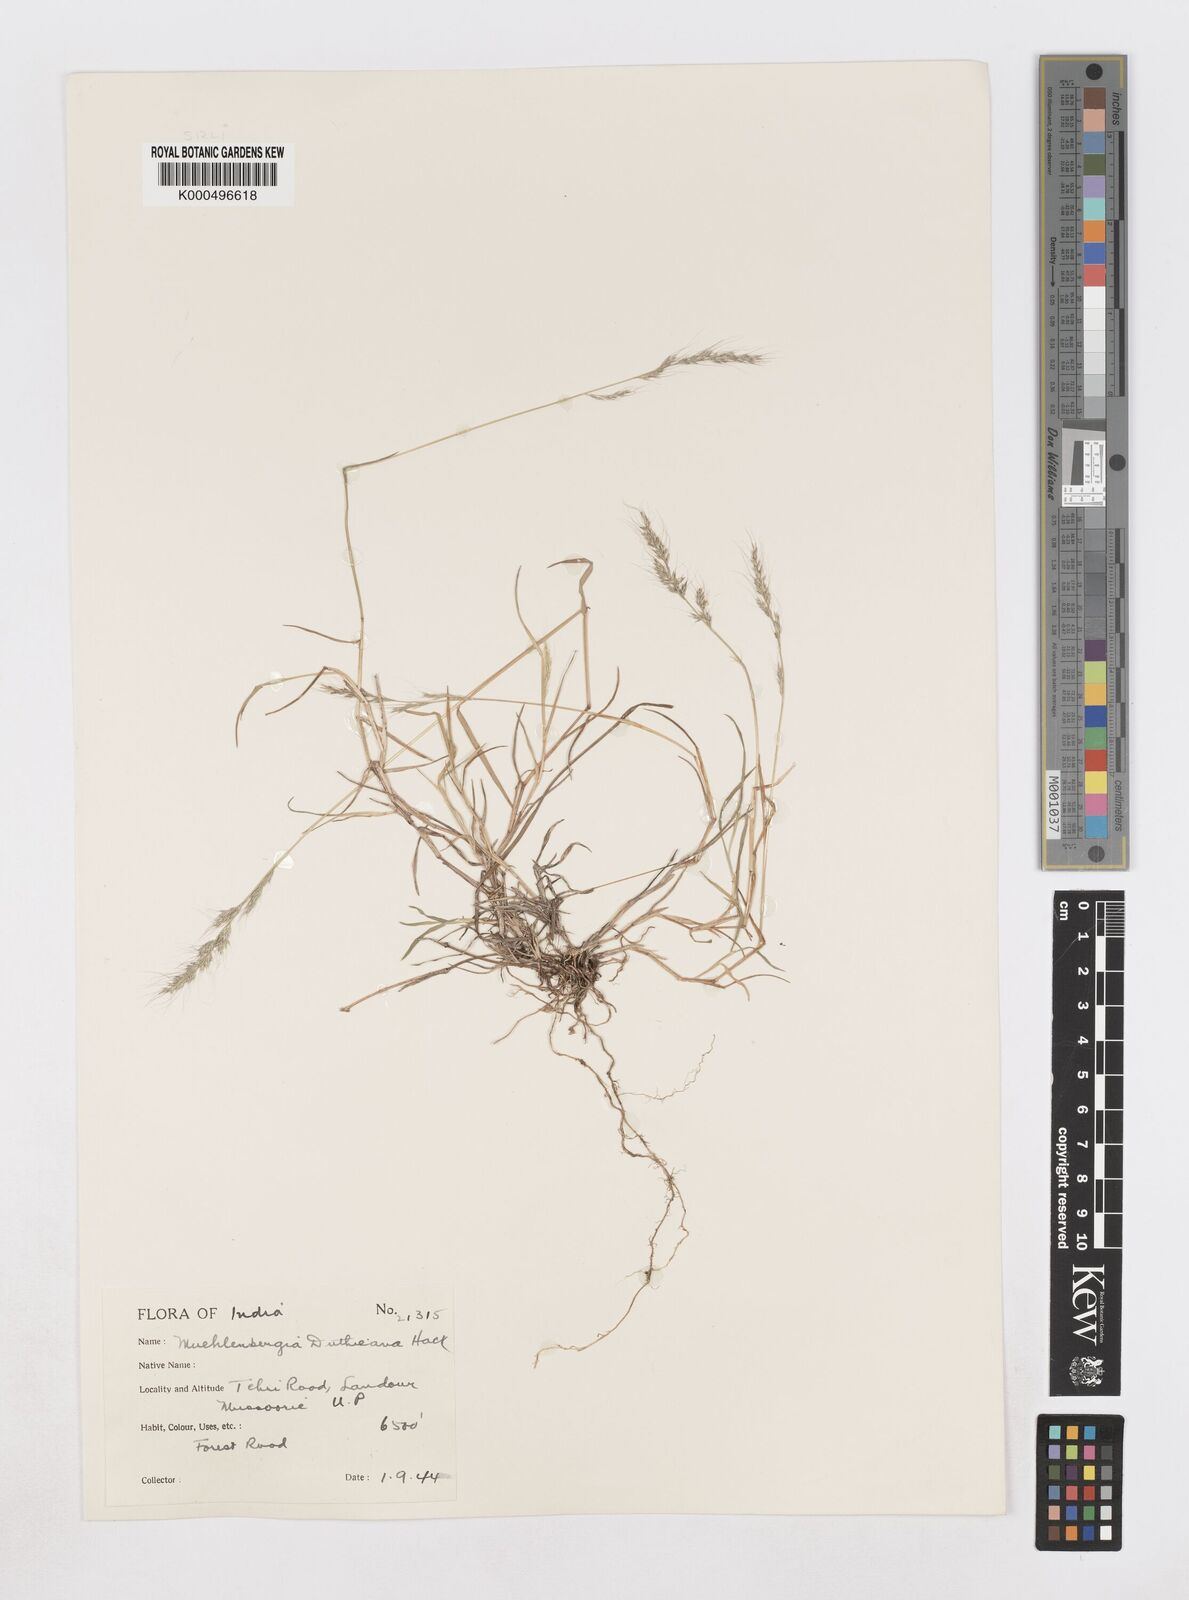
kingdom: Plantae
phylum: Tracheophyta
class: Liliopsida
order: Poales
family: Poaceae
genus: Muhlenbergia
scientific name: Muhlenbergia duthieana
